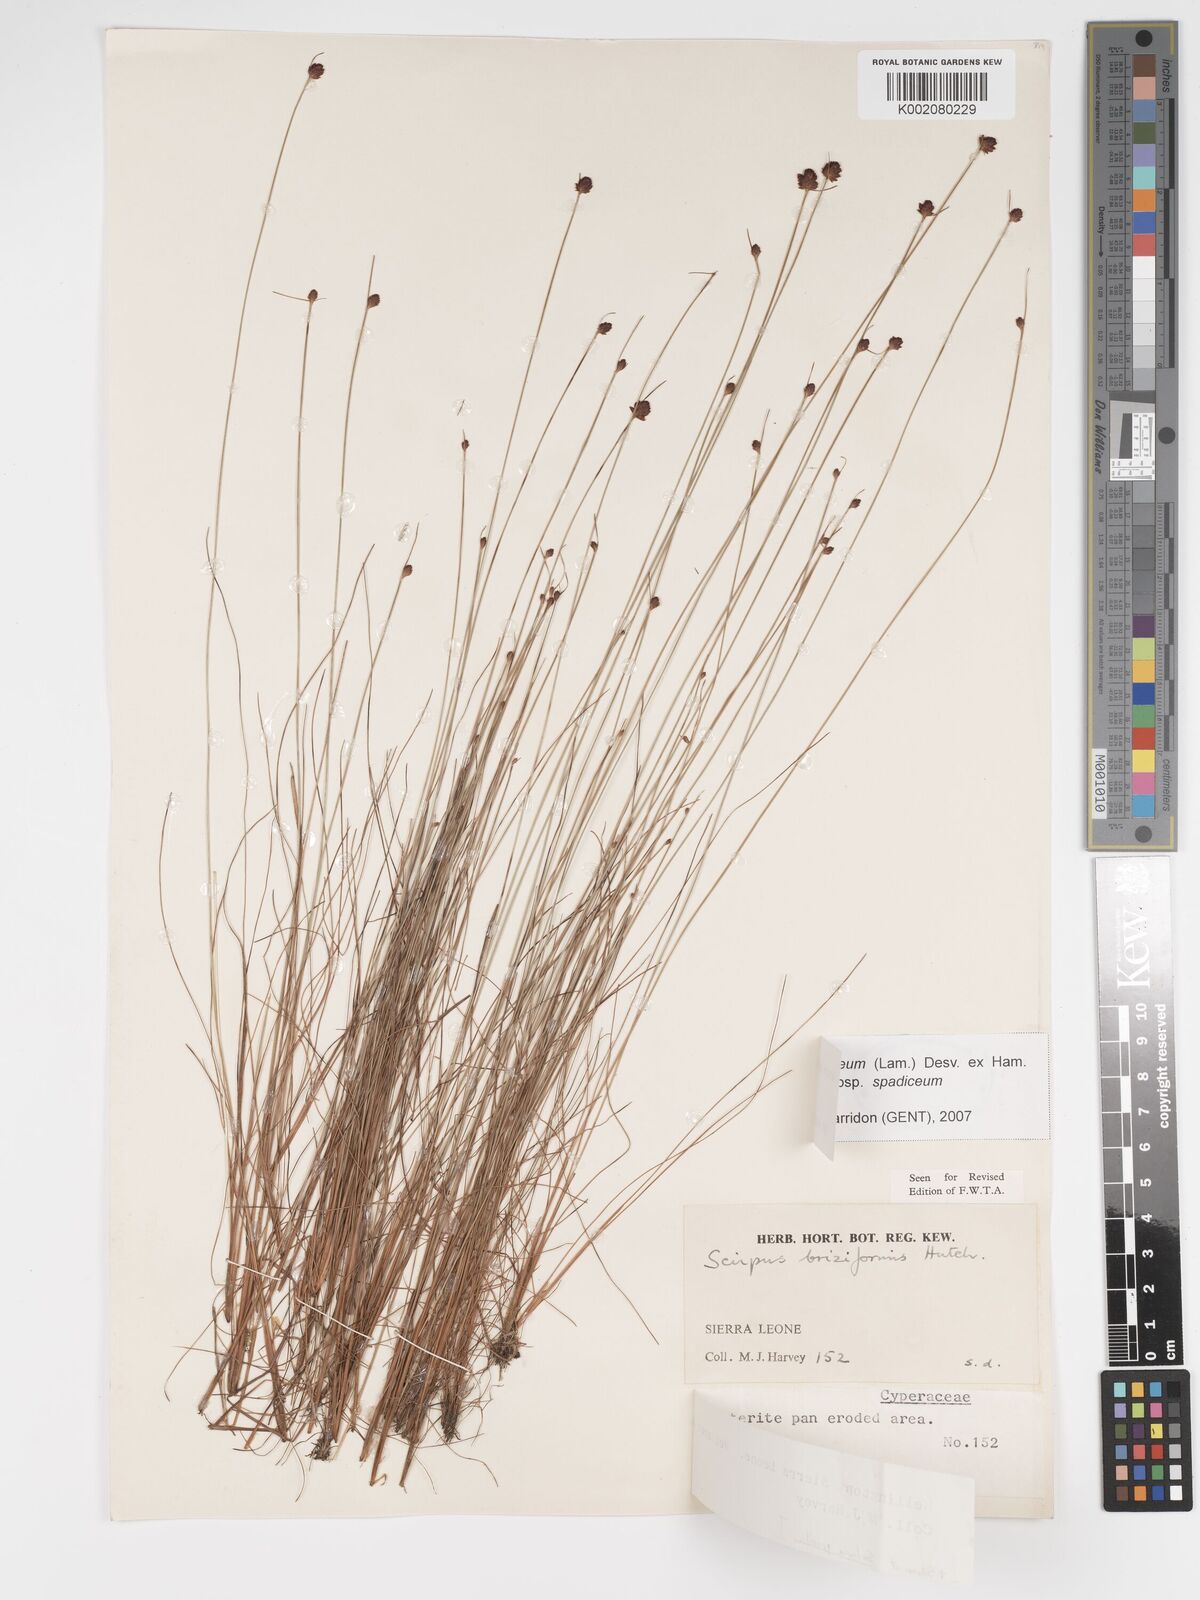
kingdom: Plantae
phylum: Tracheophyta
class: Liliopsida
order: Poales
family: Cyperaceae
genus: Bulbostylis
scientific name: Bulbostylis briziformis
